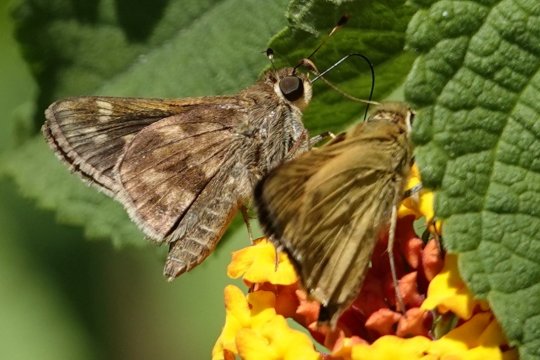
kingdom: Animalia
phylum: Arthropoda
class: Insecta
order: Lepidoptera
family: Hesperiidae
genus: Pompeius
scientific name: Pompeius pompeius
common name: Pompeius Skipper
